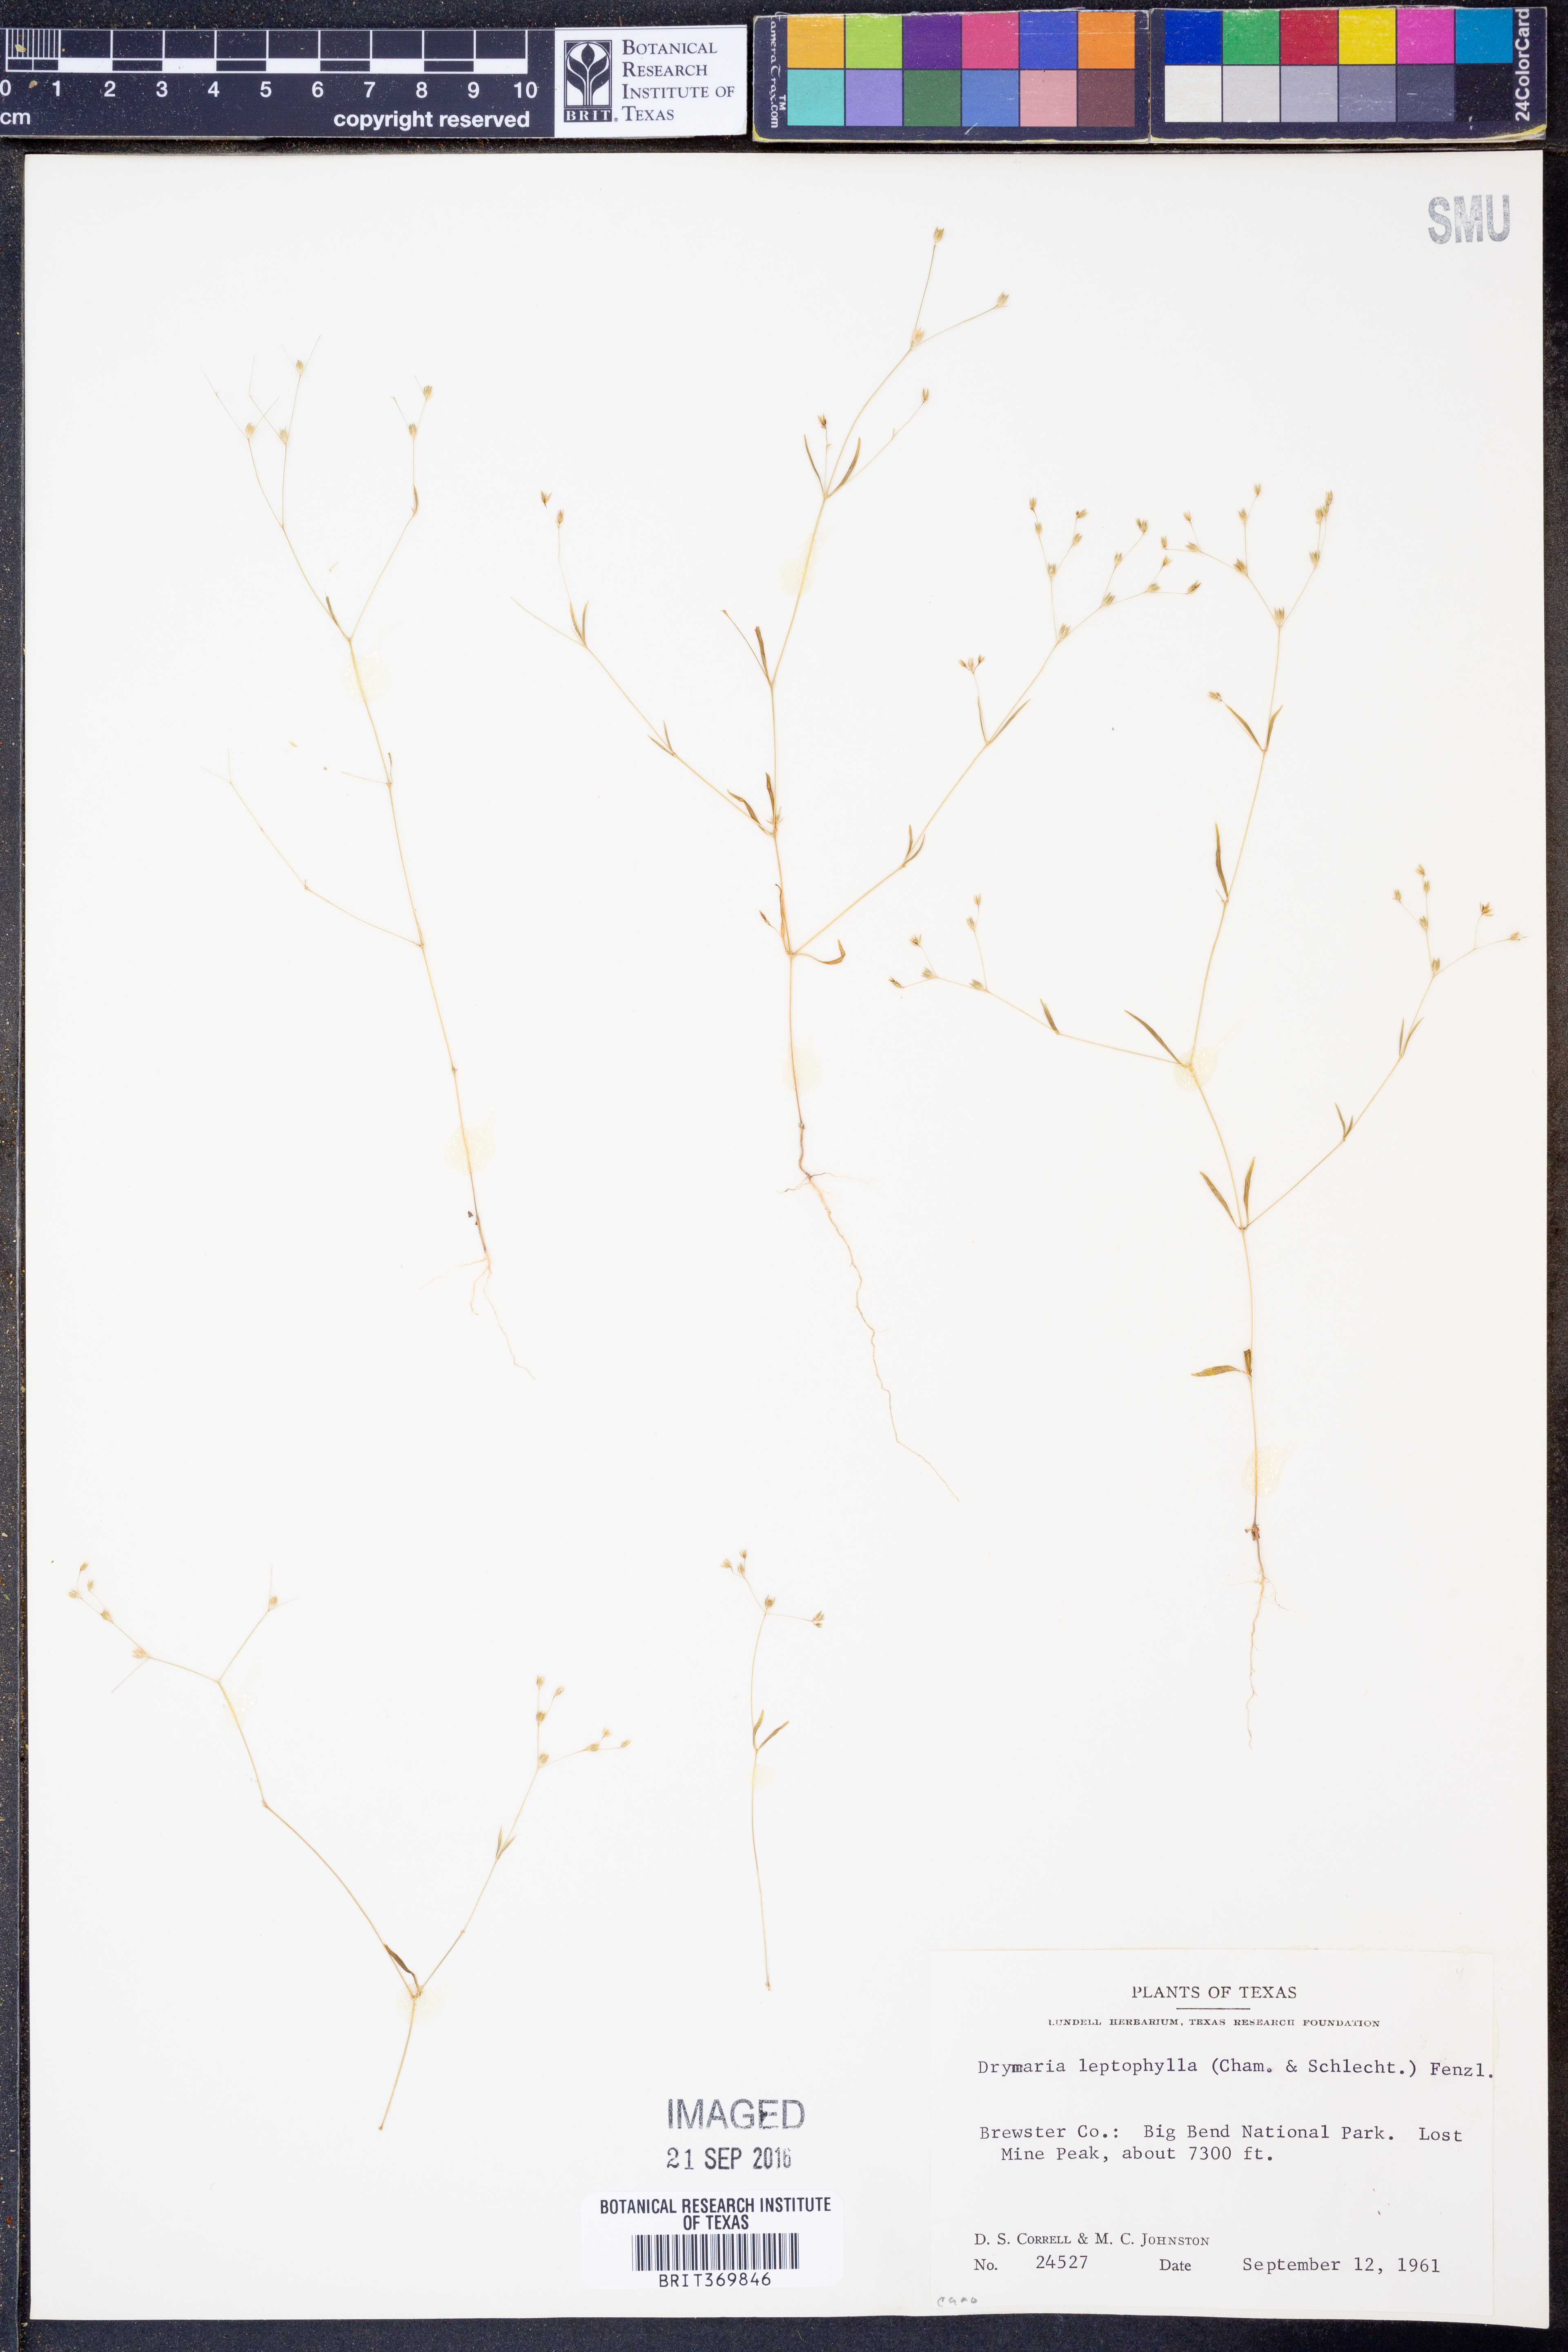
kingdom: Plantae
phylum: Tracheophyta
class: Magnoliopsida
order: Caryophyllales
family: Caryophyllaceae
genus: Drymaria
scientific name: Drymaria leptophylla
